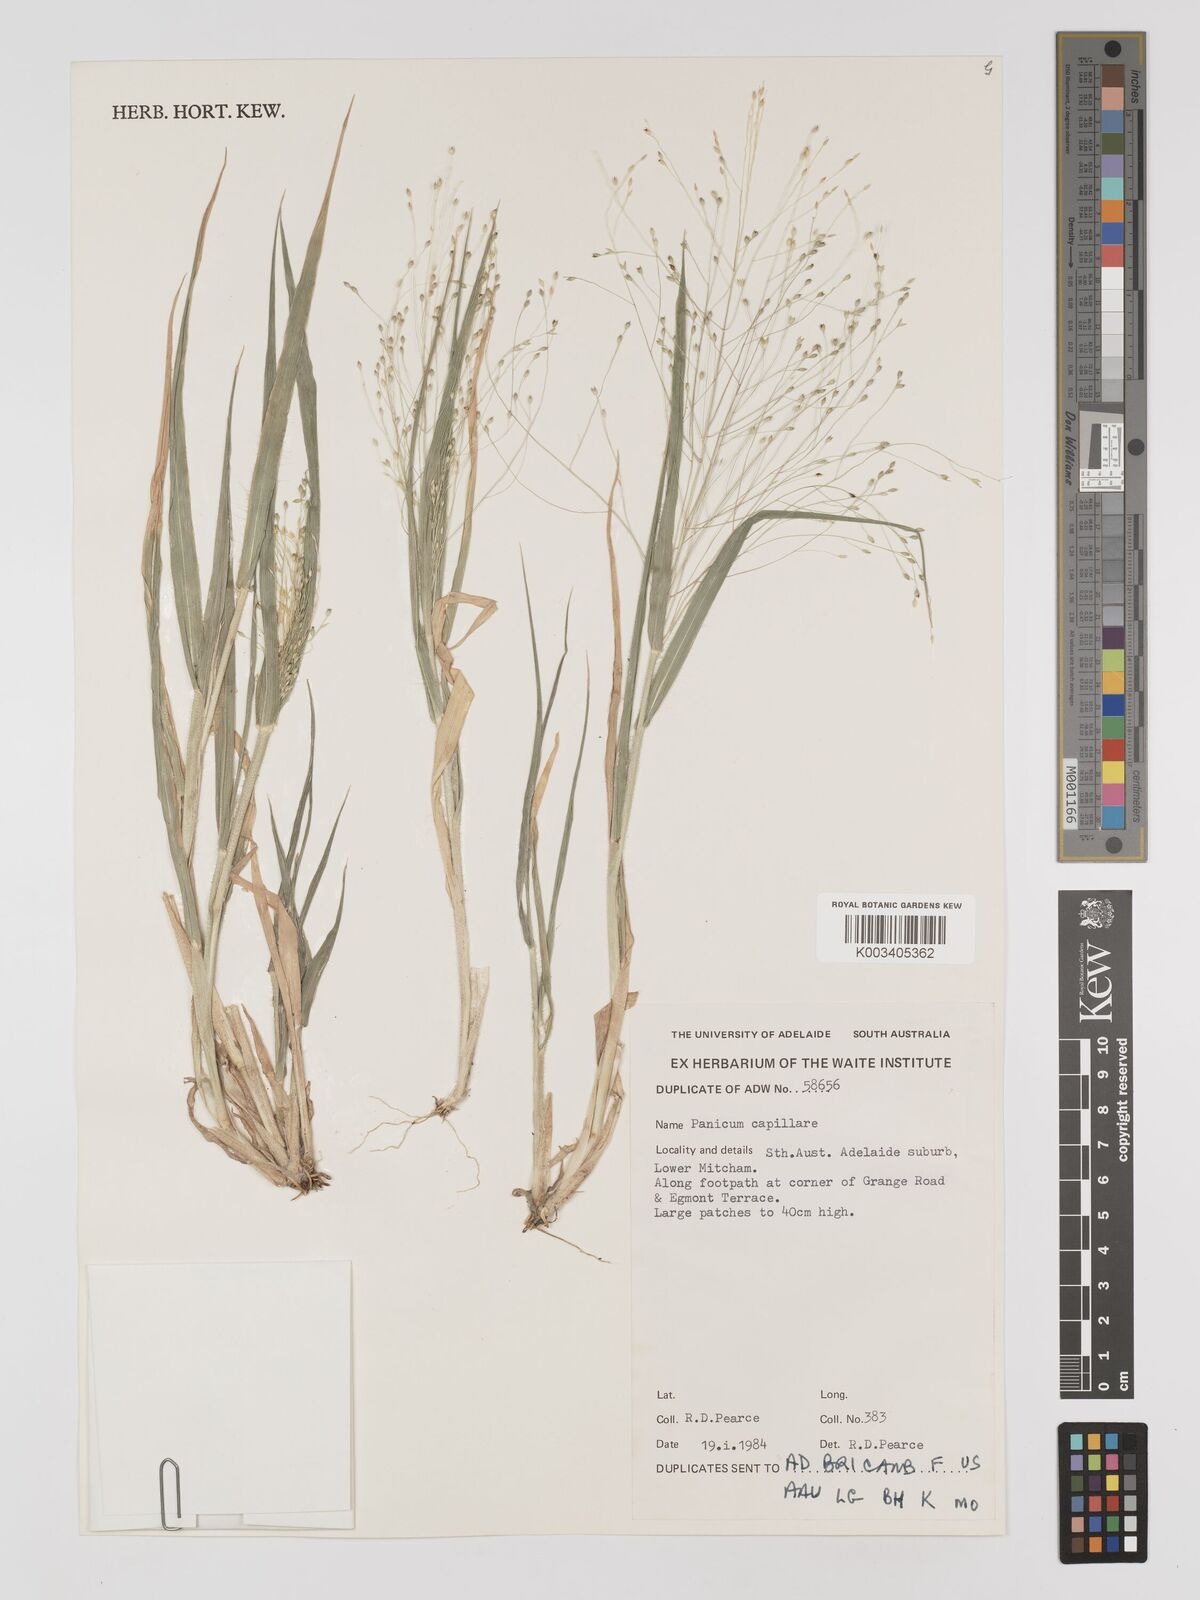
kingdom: Plantae
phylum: Tracheophyta
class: Liliopsida
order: Poales
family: Poaceae
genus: Panicum
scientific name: Panicum capillare
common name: Witch-grass
